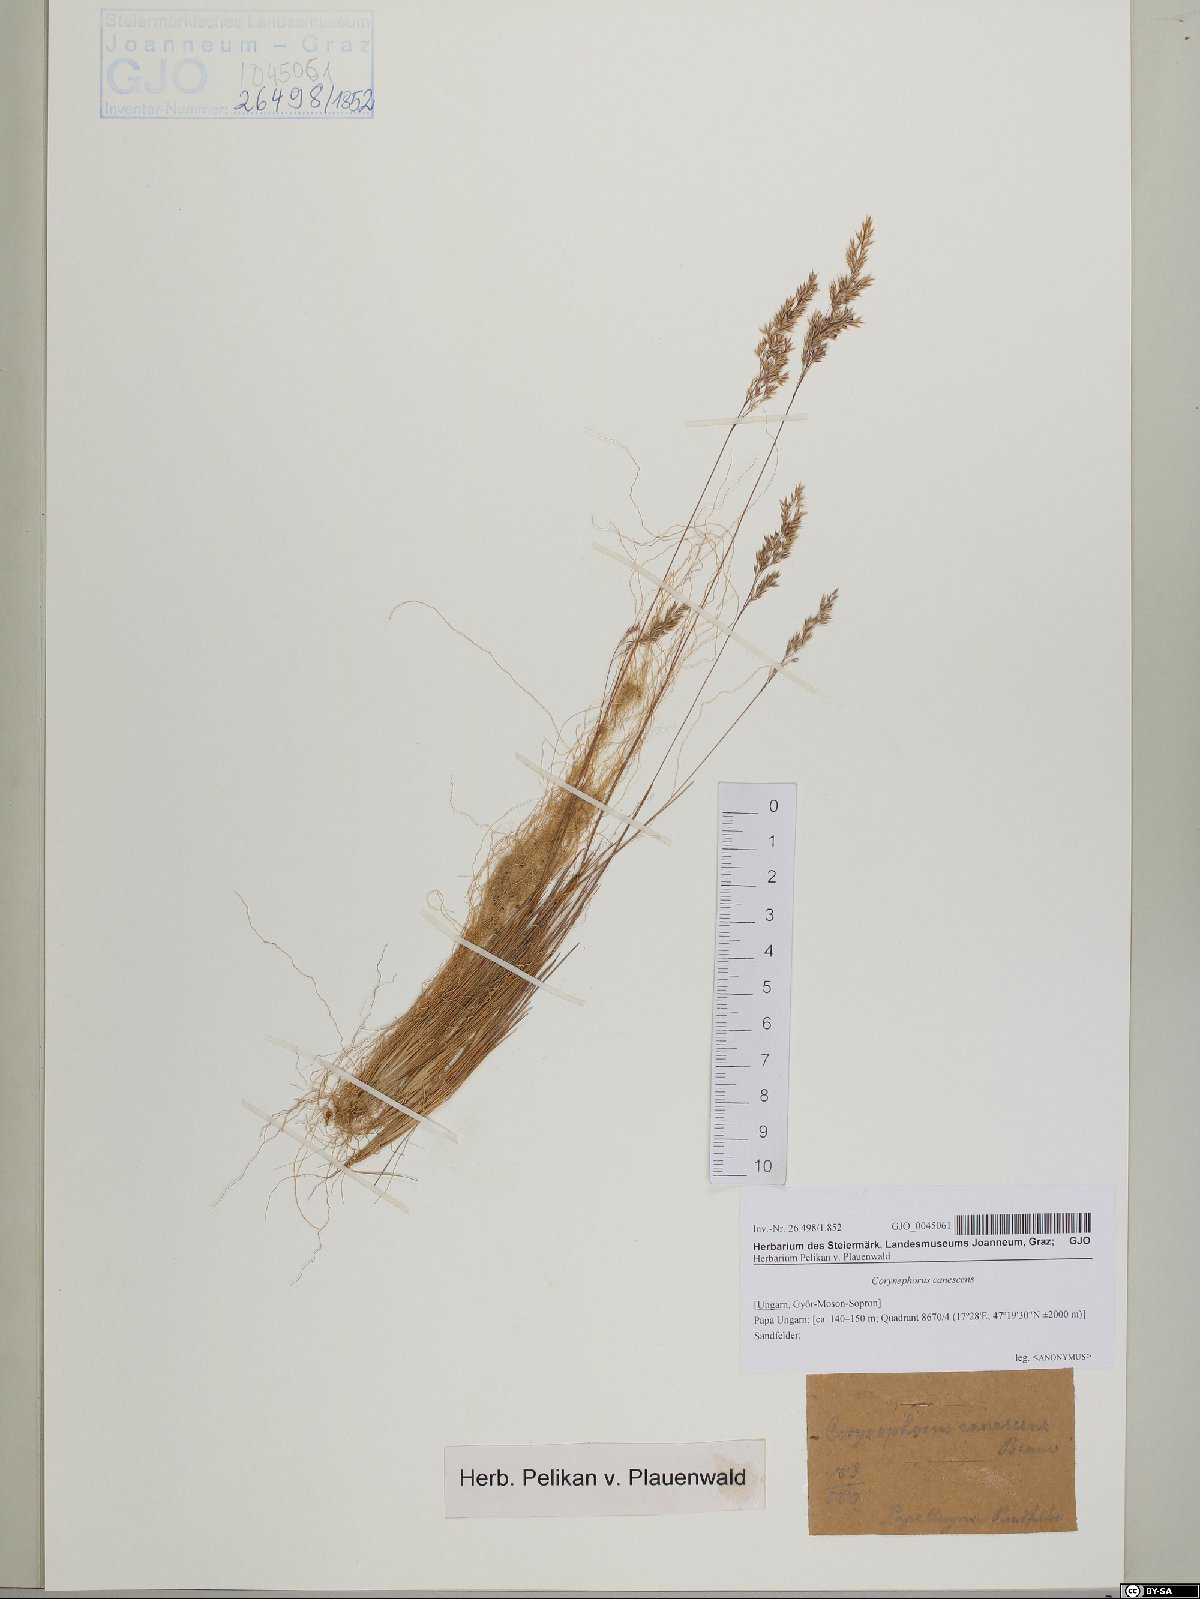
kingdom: Plantae
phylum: Tracheophyta
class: Liliopsida
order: Poales
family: Poaceae
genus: Corynephorus
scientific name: Corynephorus canescens
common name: Grey hair-grass
